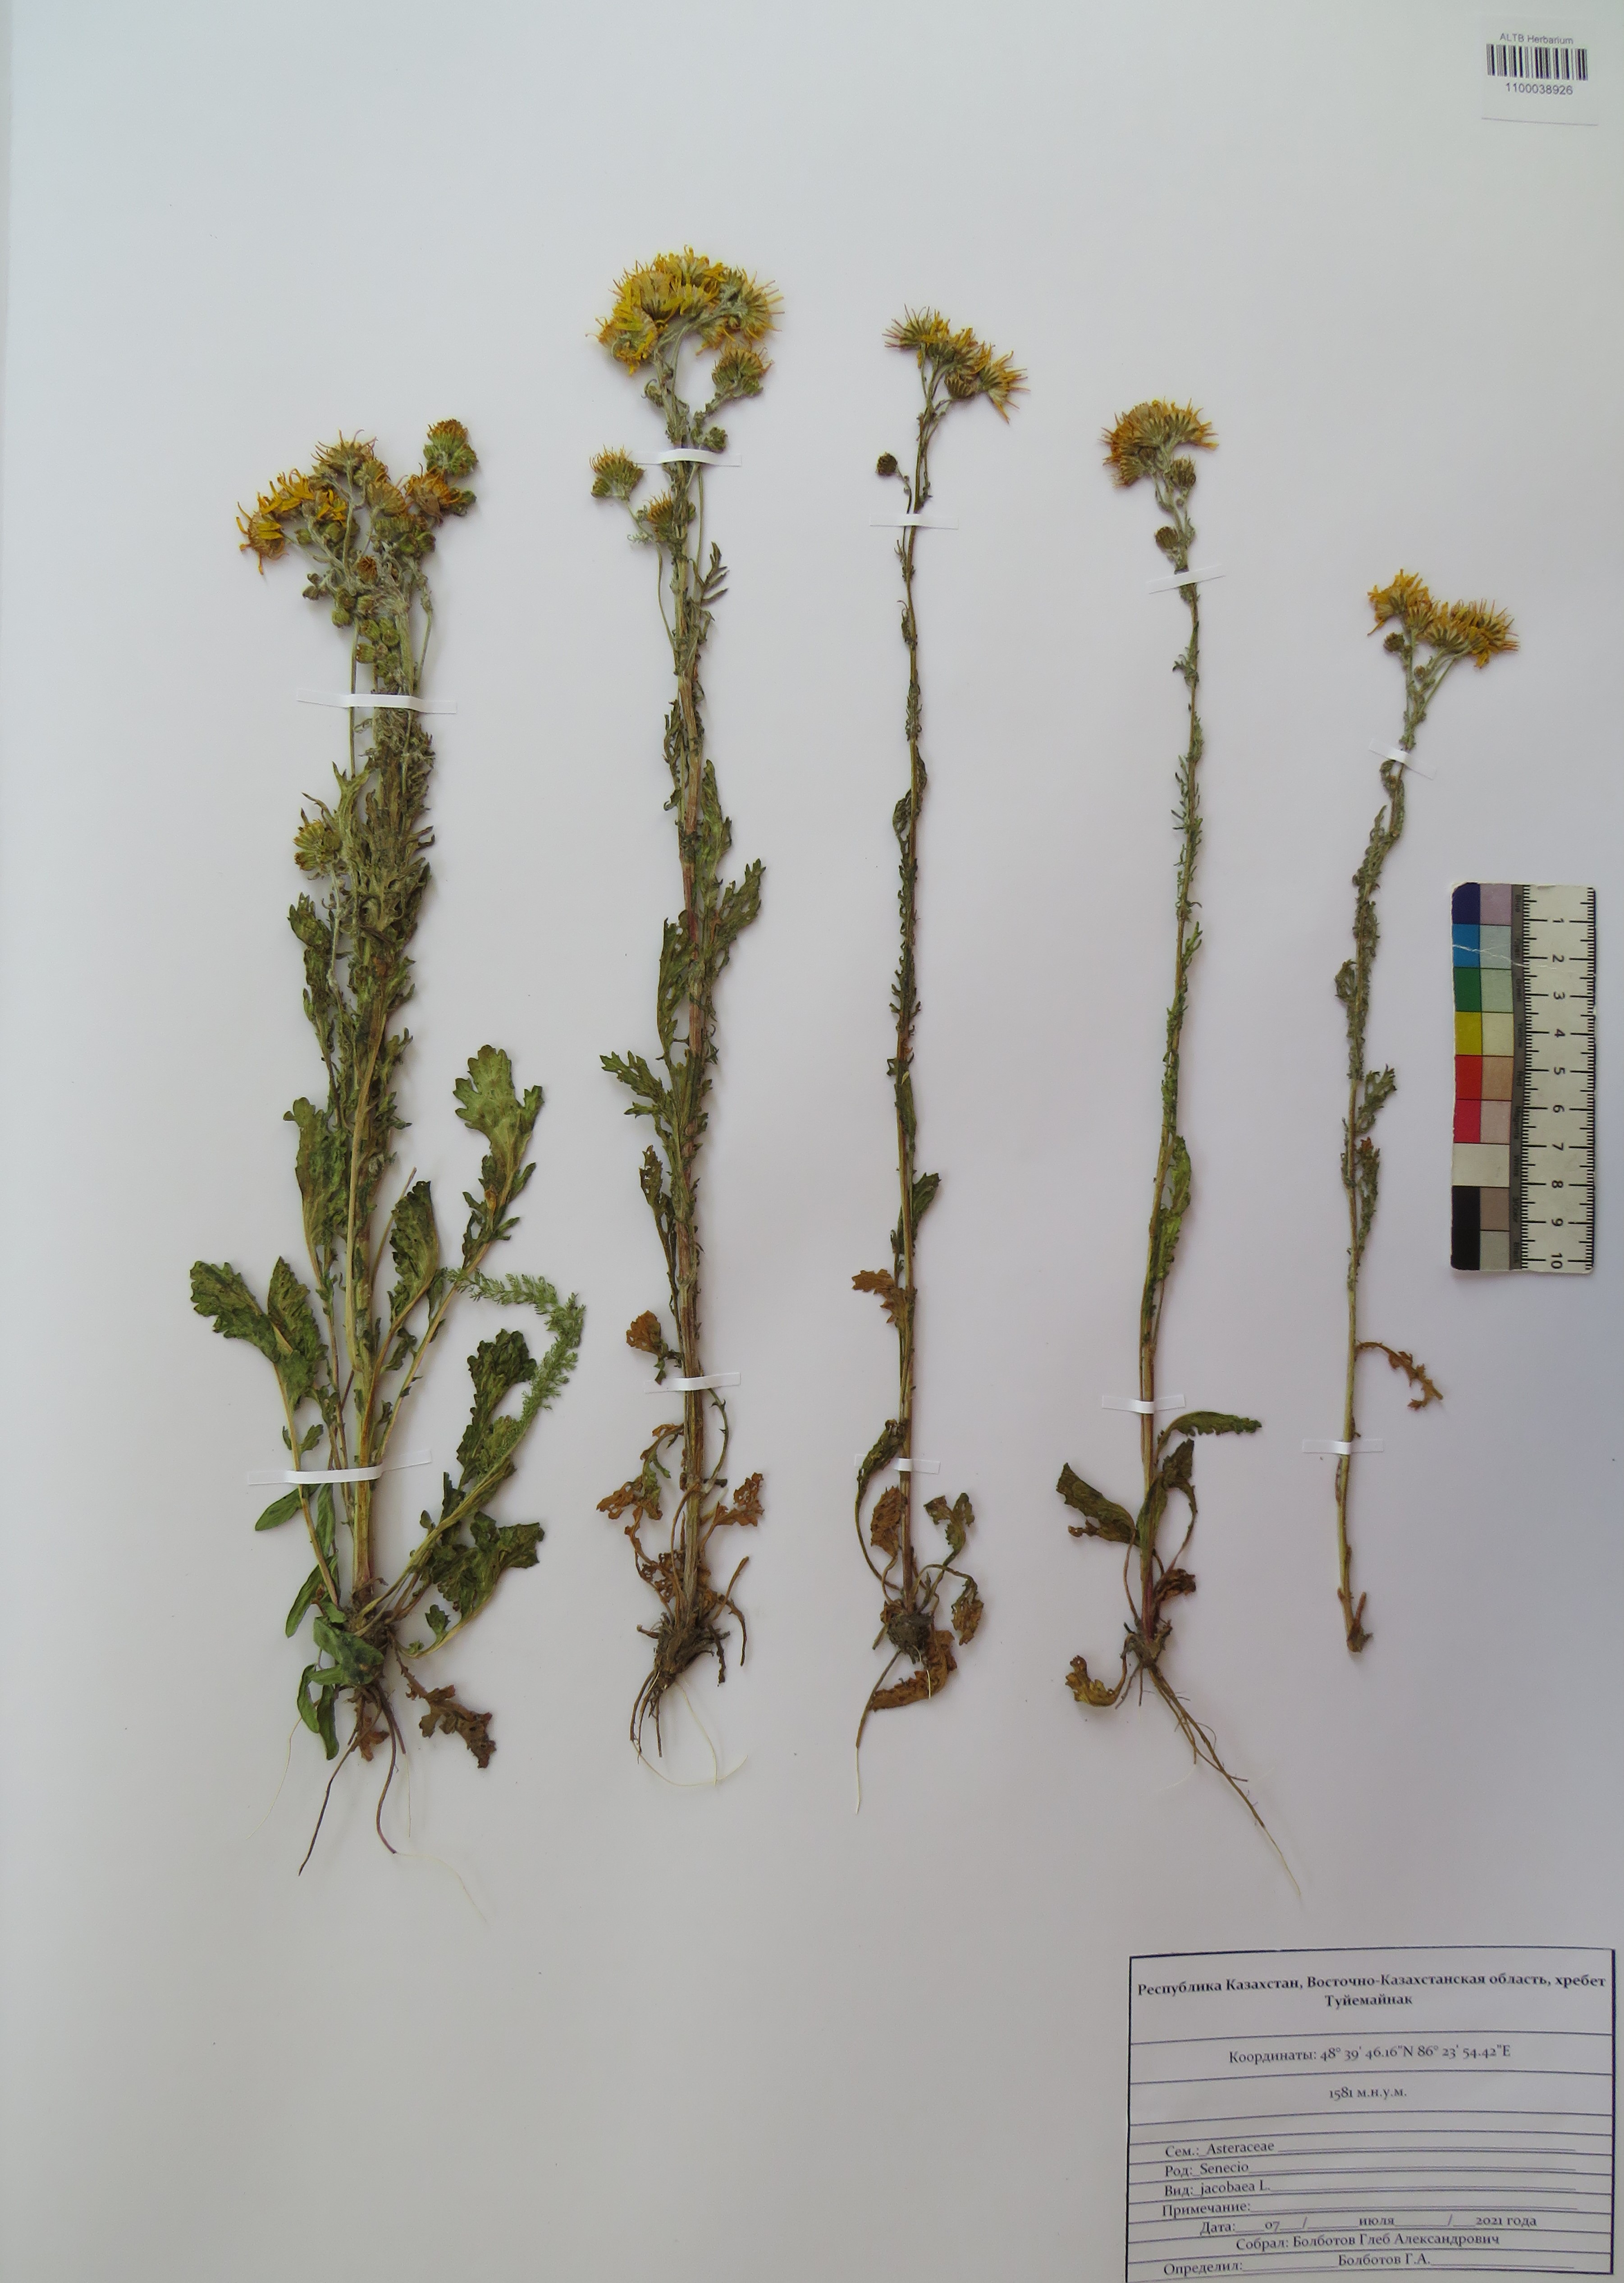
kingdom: Plantae
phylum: Tracheophyta
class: Magnoliopsida
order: Asterales
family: Asteraceae
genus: Jacobaea
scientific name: Jacobaea vulgaris
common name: Stinking willie
